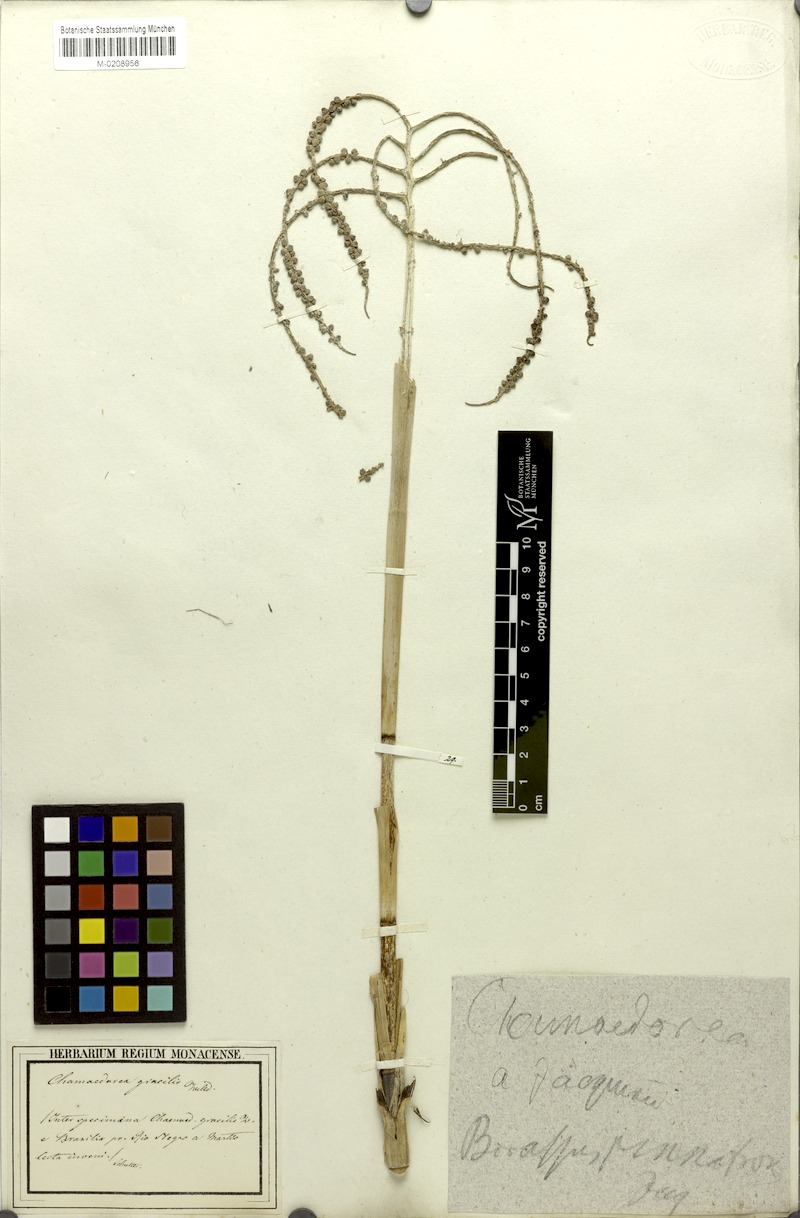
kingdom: Plantae
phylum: Tracheophyta
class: Liliopsida
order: Arecales
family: Arecaceae
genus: Chamaedorea
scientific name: Chamaedorea pinnatifrons
